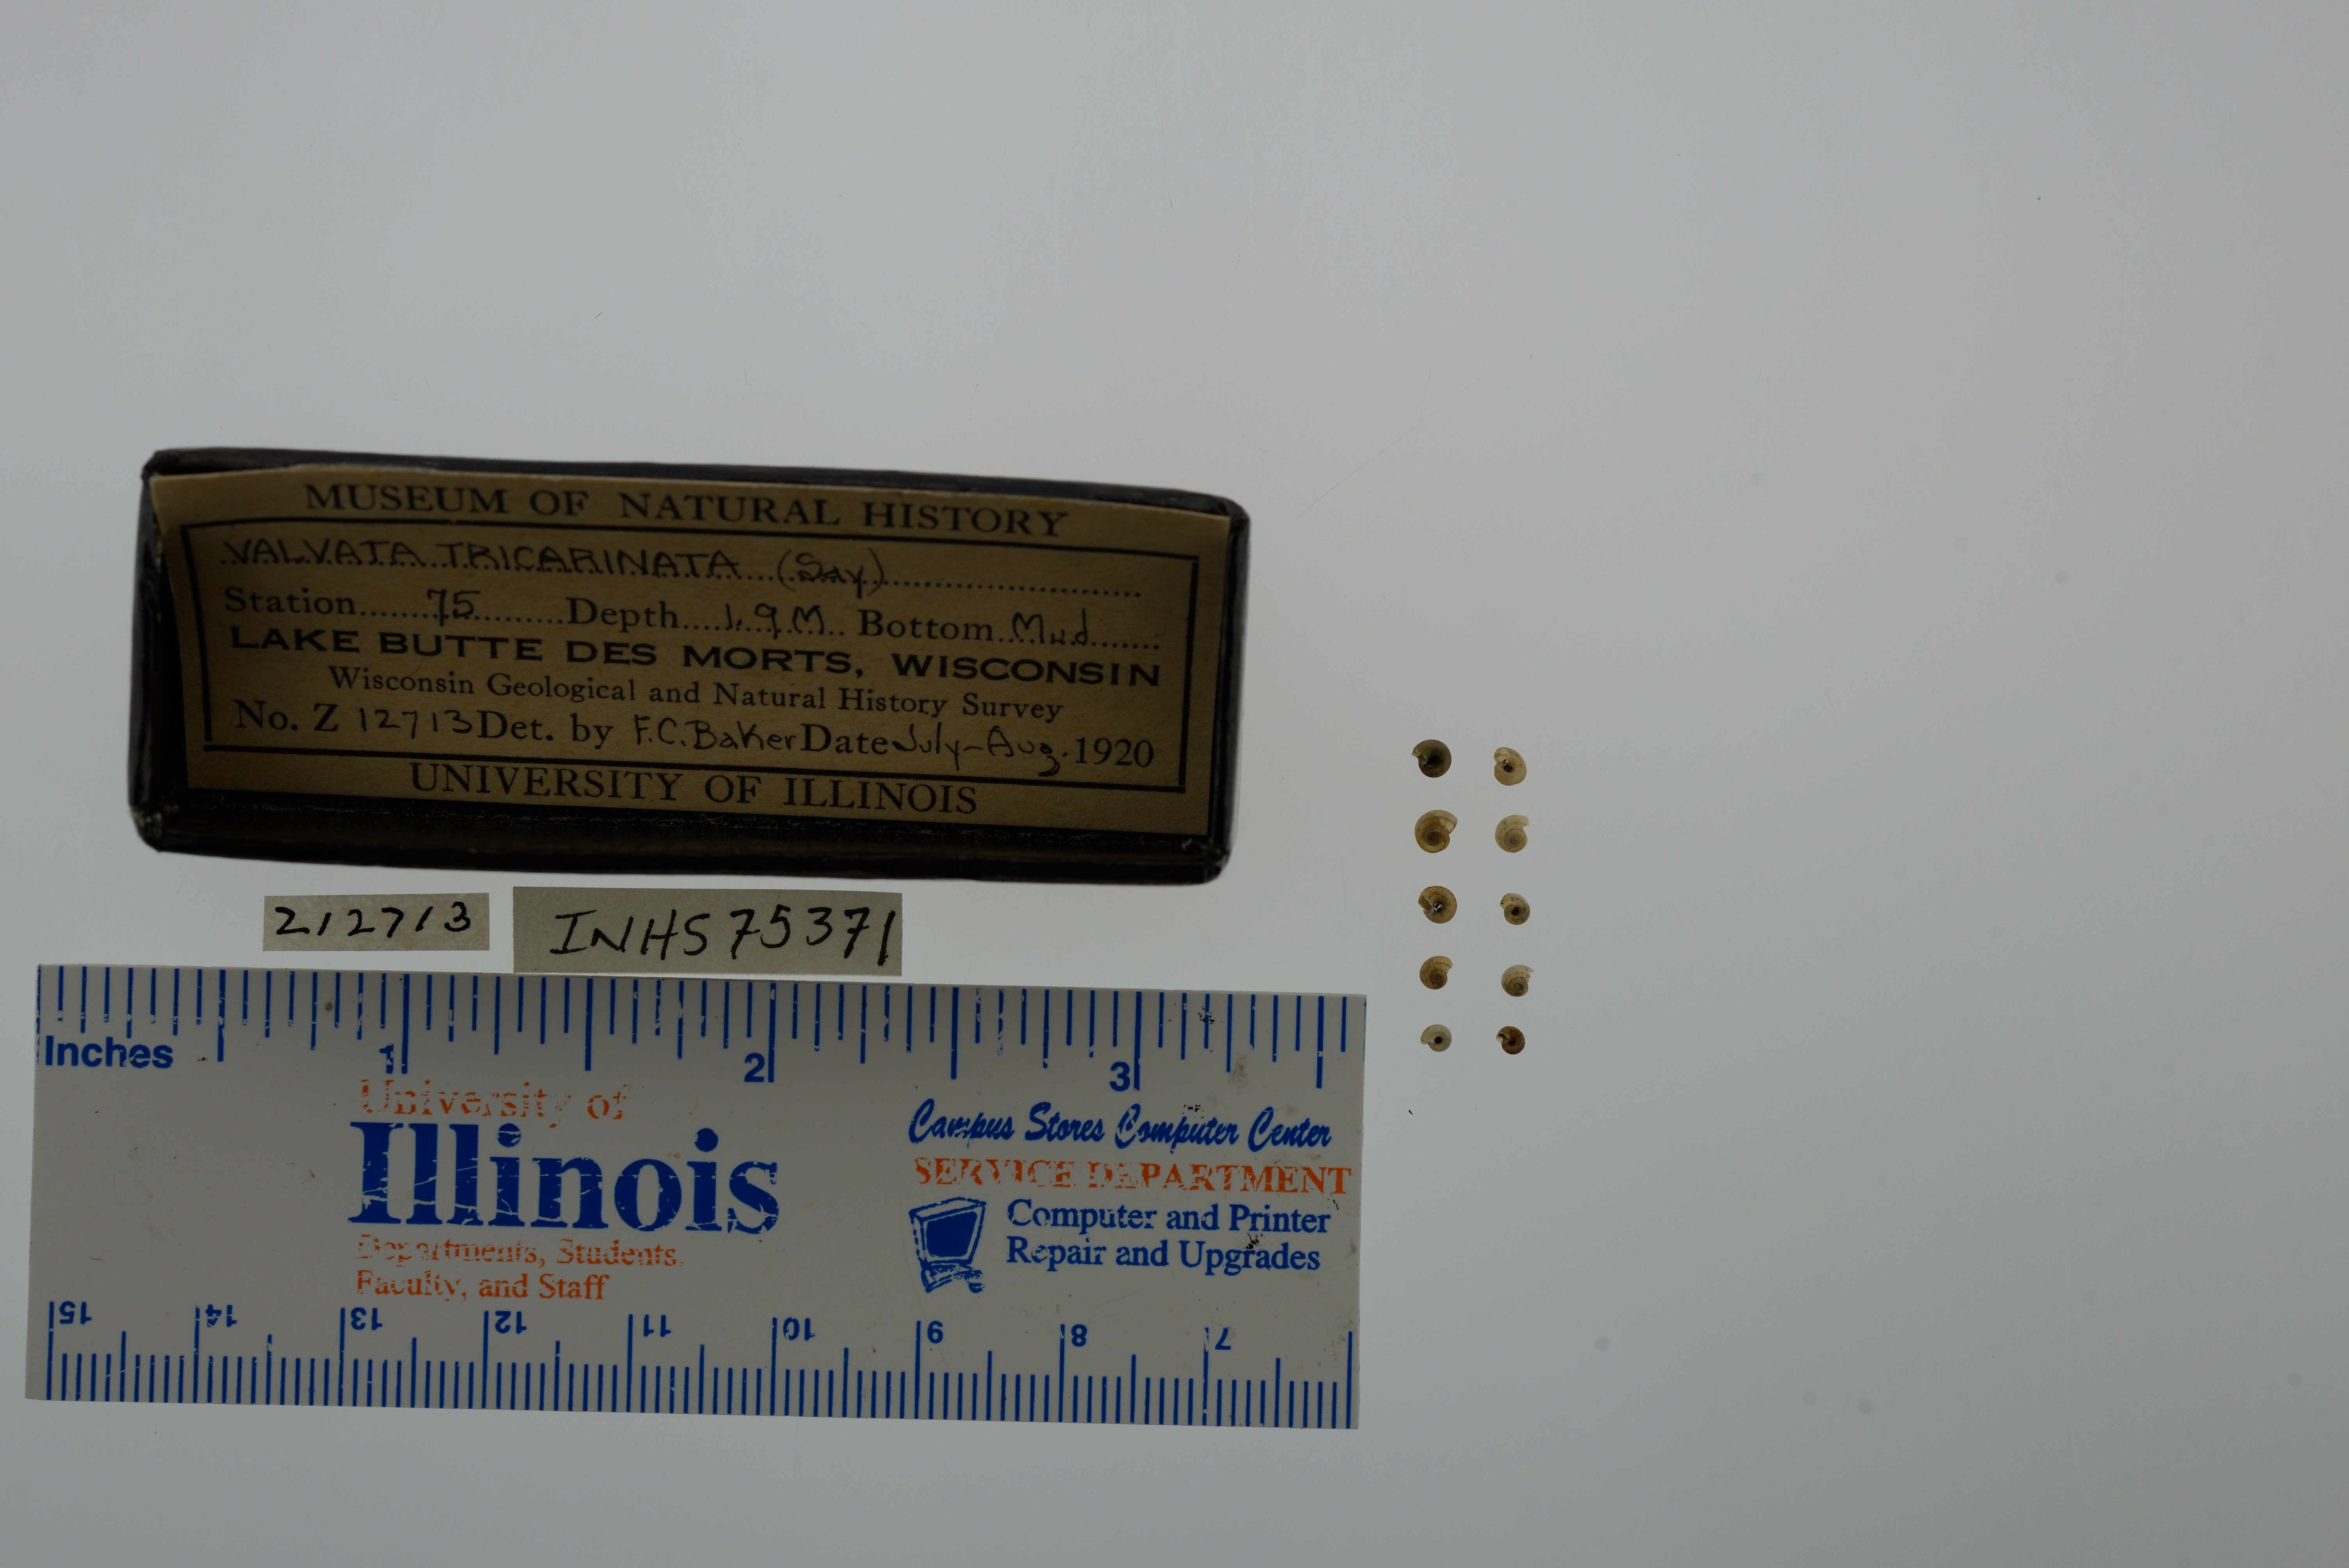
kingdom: Animalia
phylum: Mollusca
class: Gastropoda
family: Valvatidae
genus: Valvata
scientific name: Valvata tricarinata
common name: Three-ridge valvata
